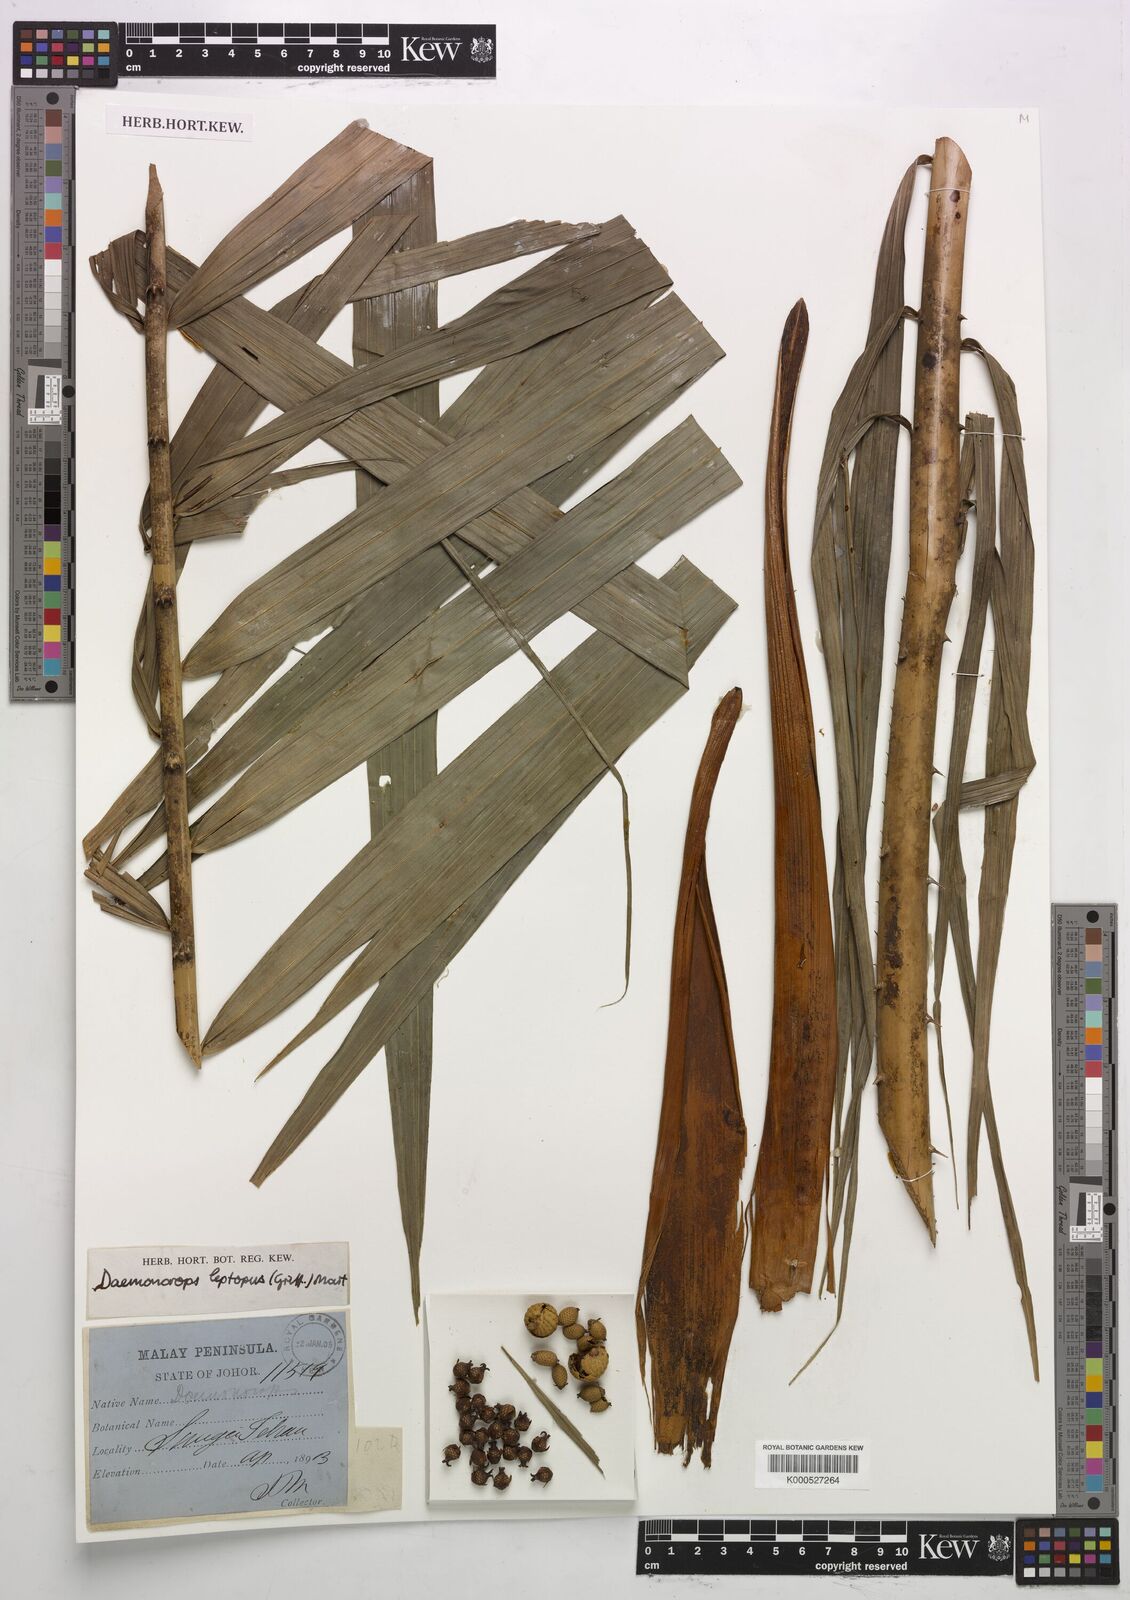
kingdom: Plantae
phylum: Tracheophyta
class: Liliopsida
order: Arecales
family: Arecaceae
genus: Calamus
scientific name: Calamus leptopus
